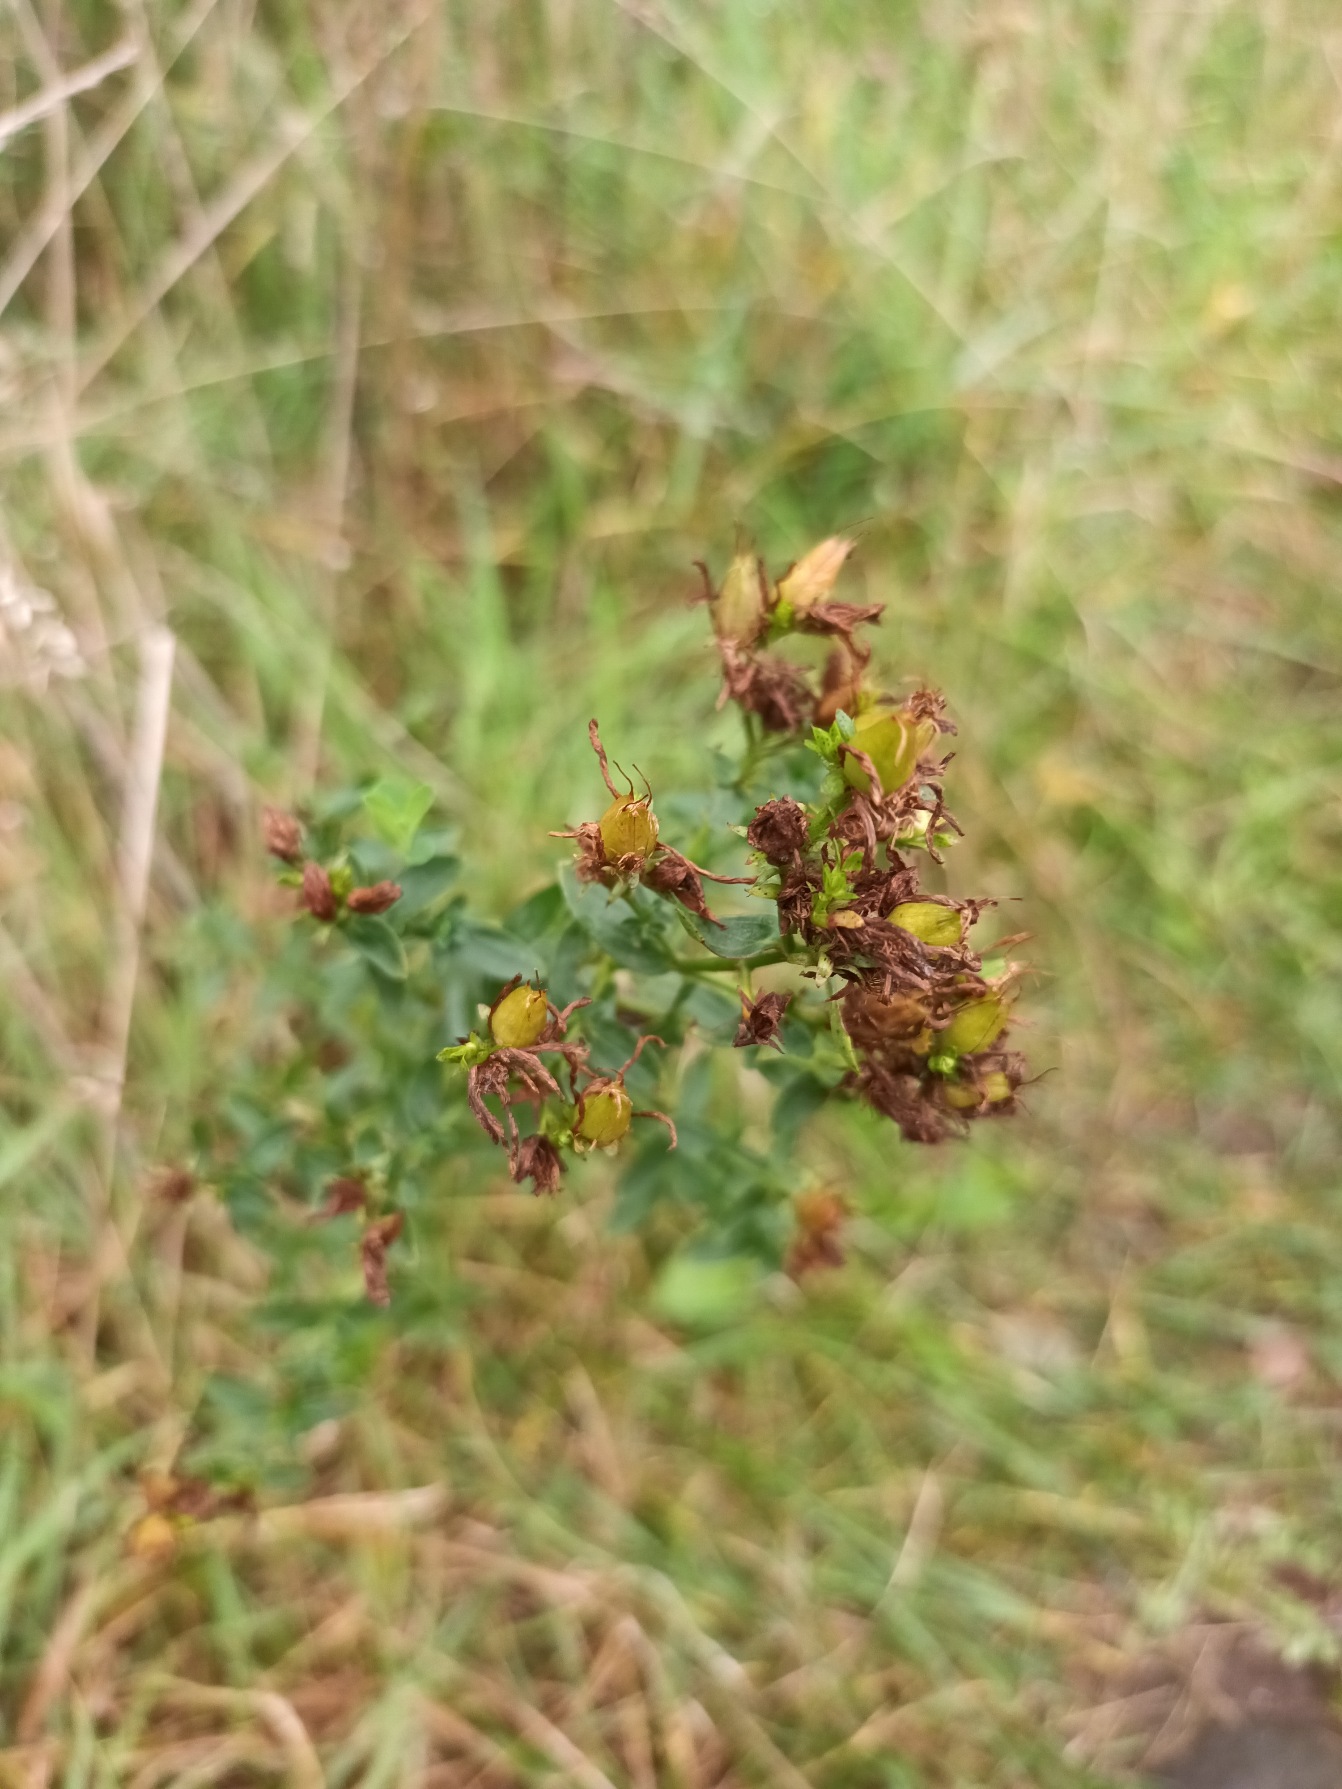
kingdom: Plantae
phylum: Tracheophyta
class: Magnoliopsida
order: Malpighiales
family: Hypericaceae
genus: Hypericum
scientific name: Hypericum perforatum
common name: Prikbladet perikon
